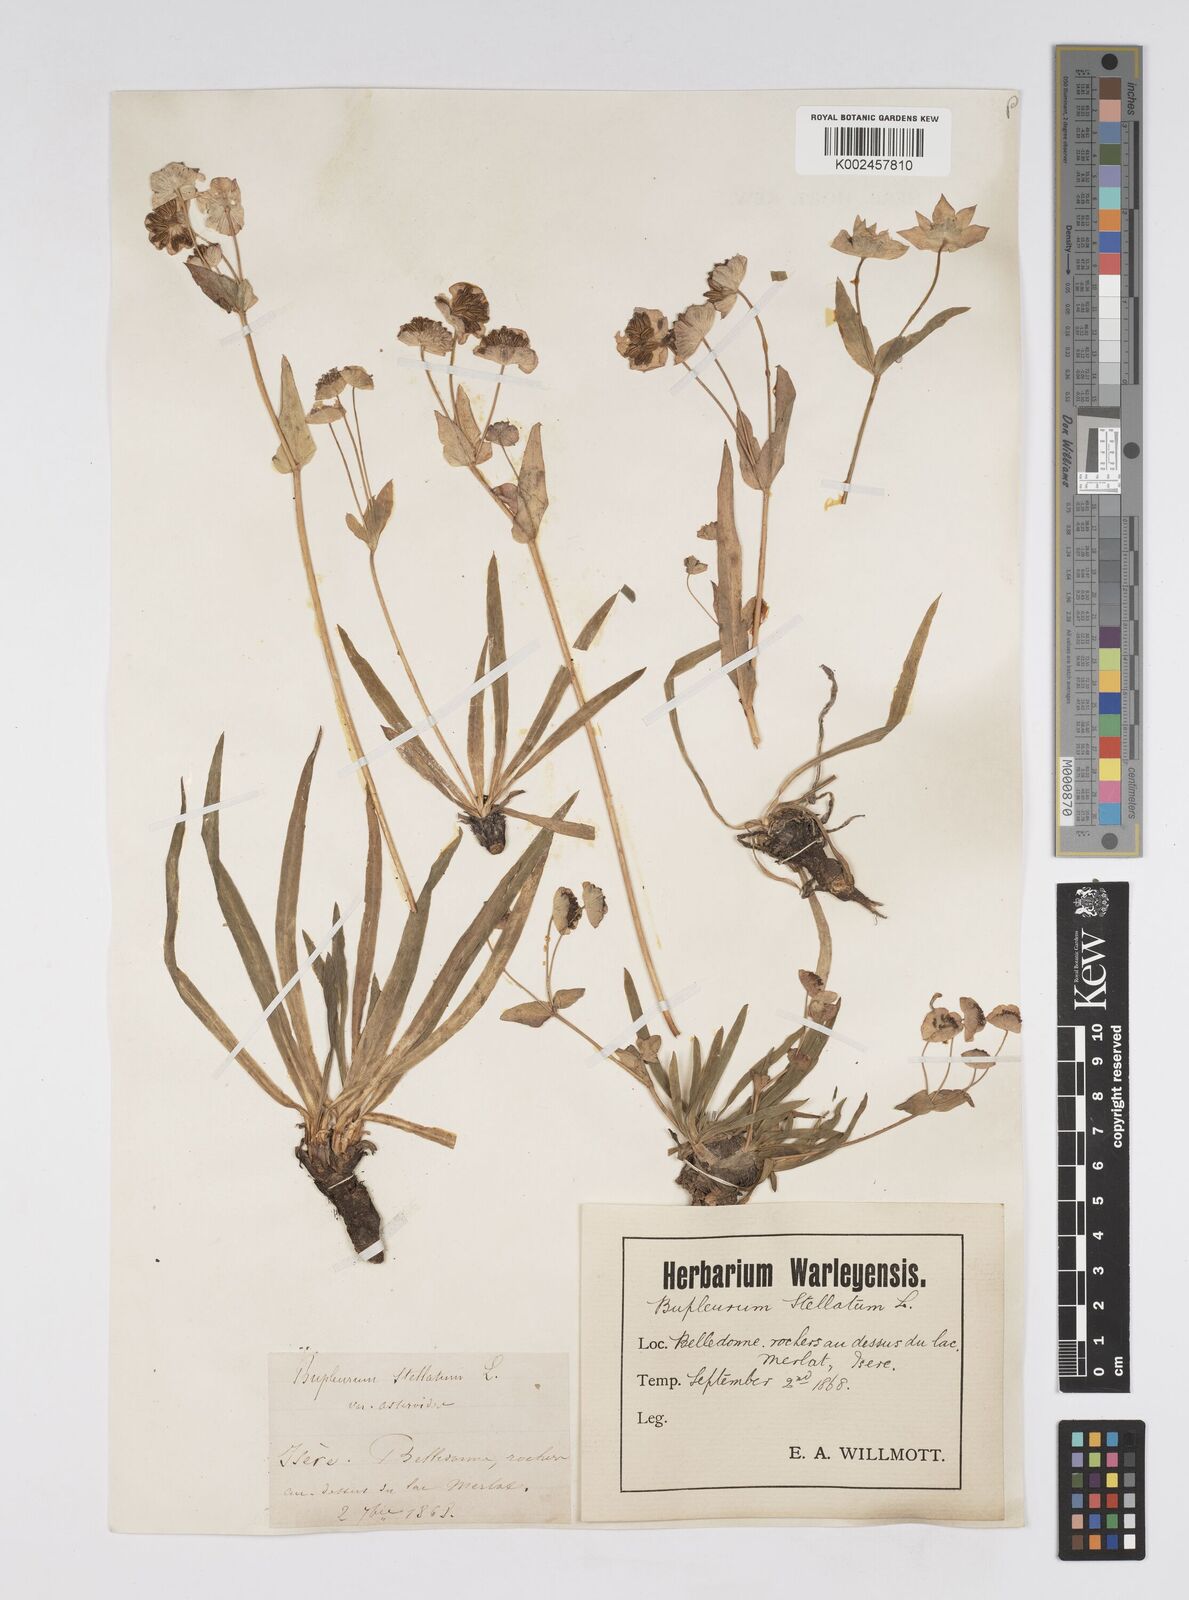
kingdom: Plantae
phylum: Tracheophyta
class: Magnoliopsida
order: Apiales
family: Apiaceae
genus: Bupleurum
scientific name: Bupleurum stellatum
